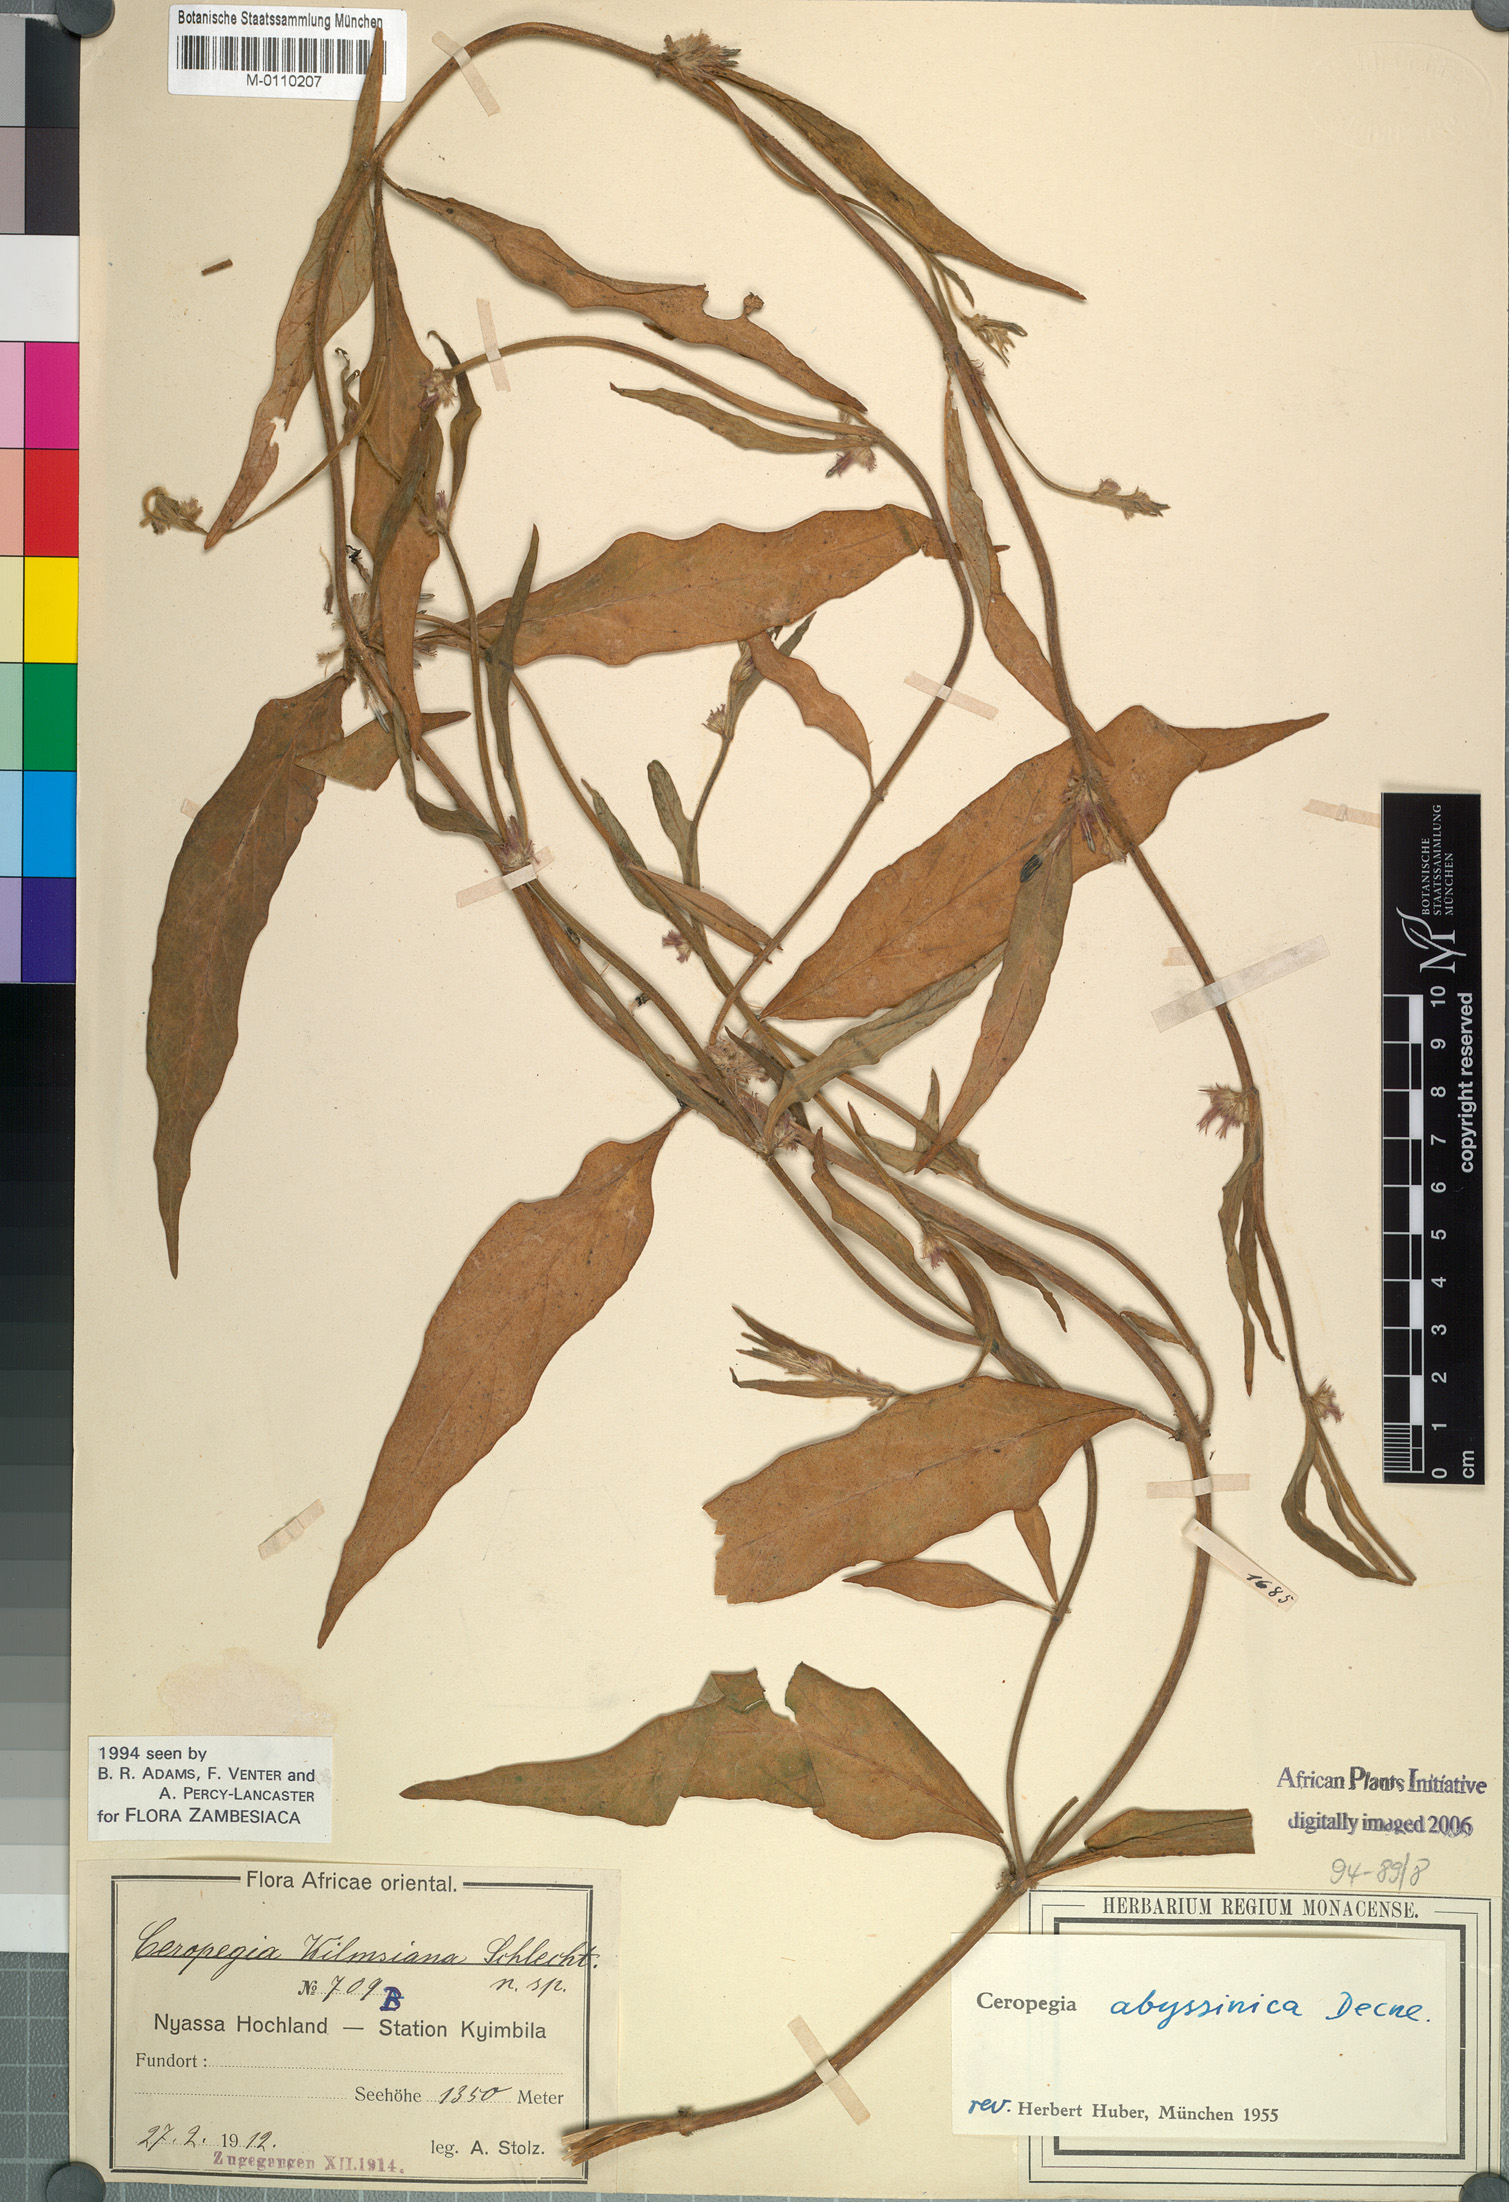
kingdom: Plantae
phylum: Tracheophyta
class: Magnoliopsida
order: Gentianales
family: Apocynaceae
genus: Ceropegia
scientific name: Ceropegia abyssinica
